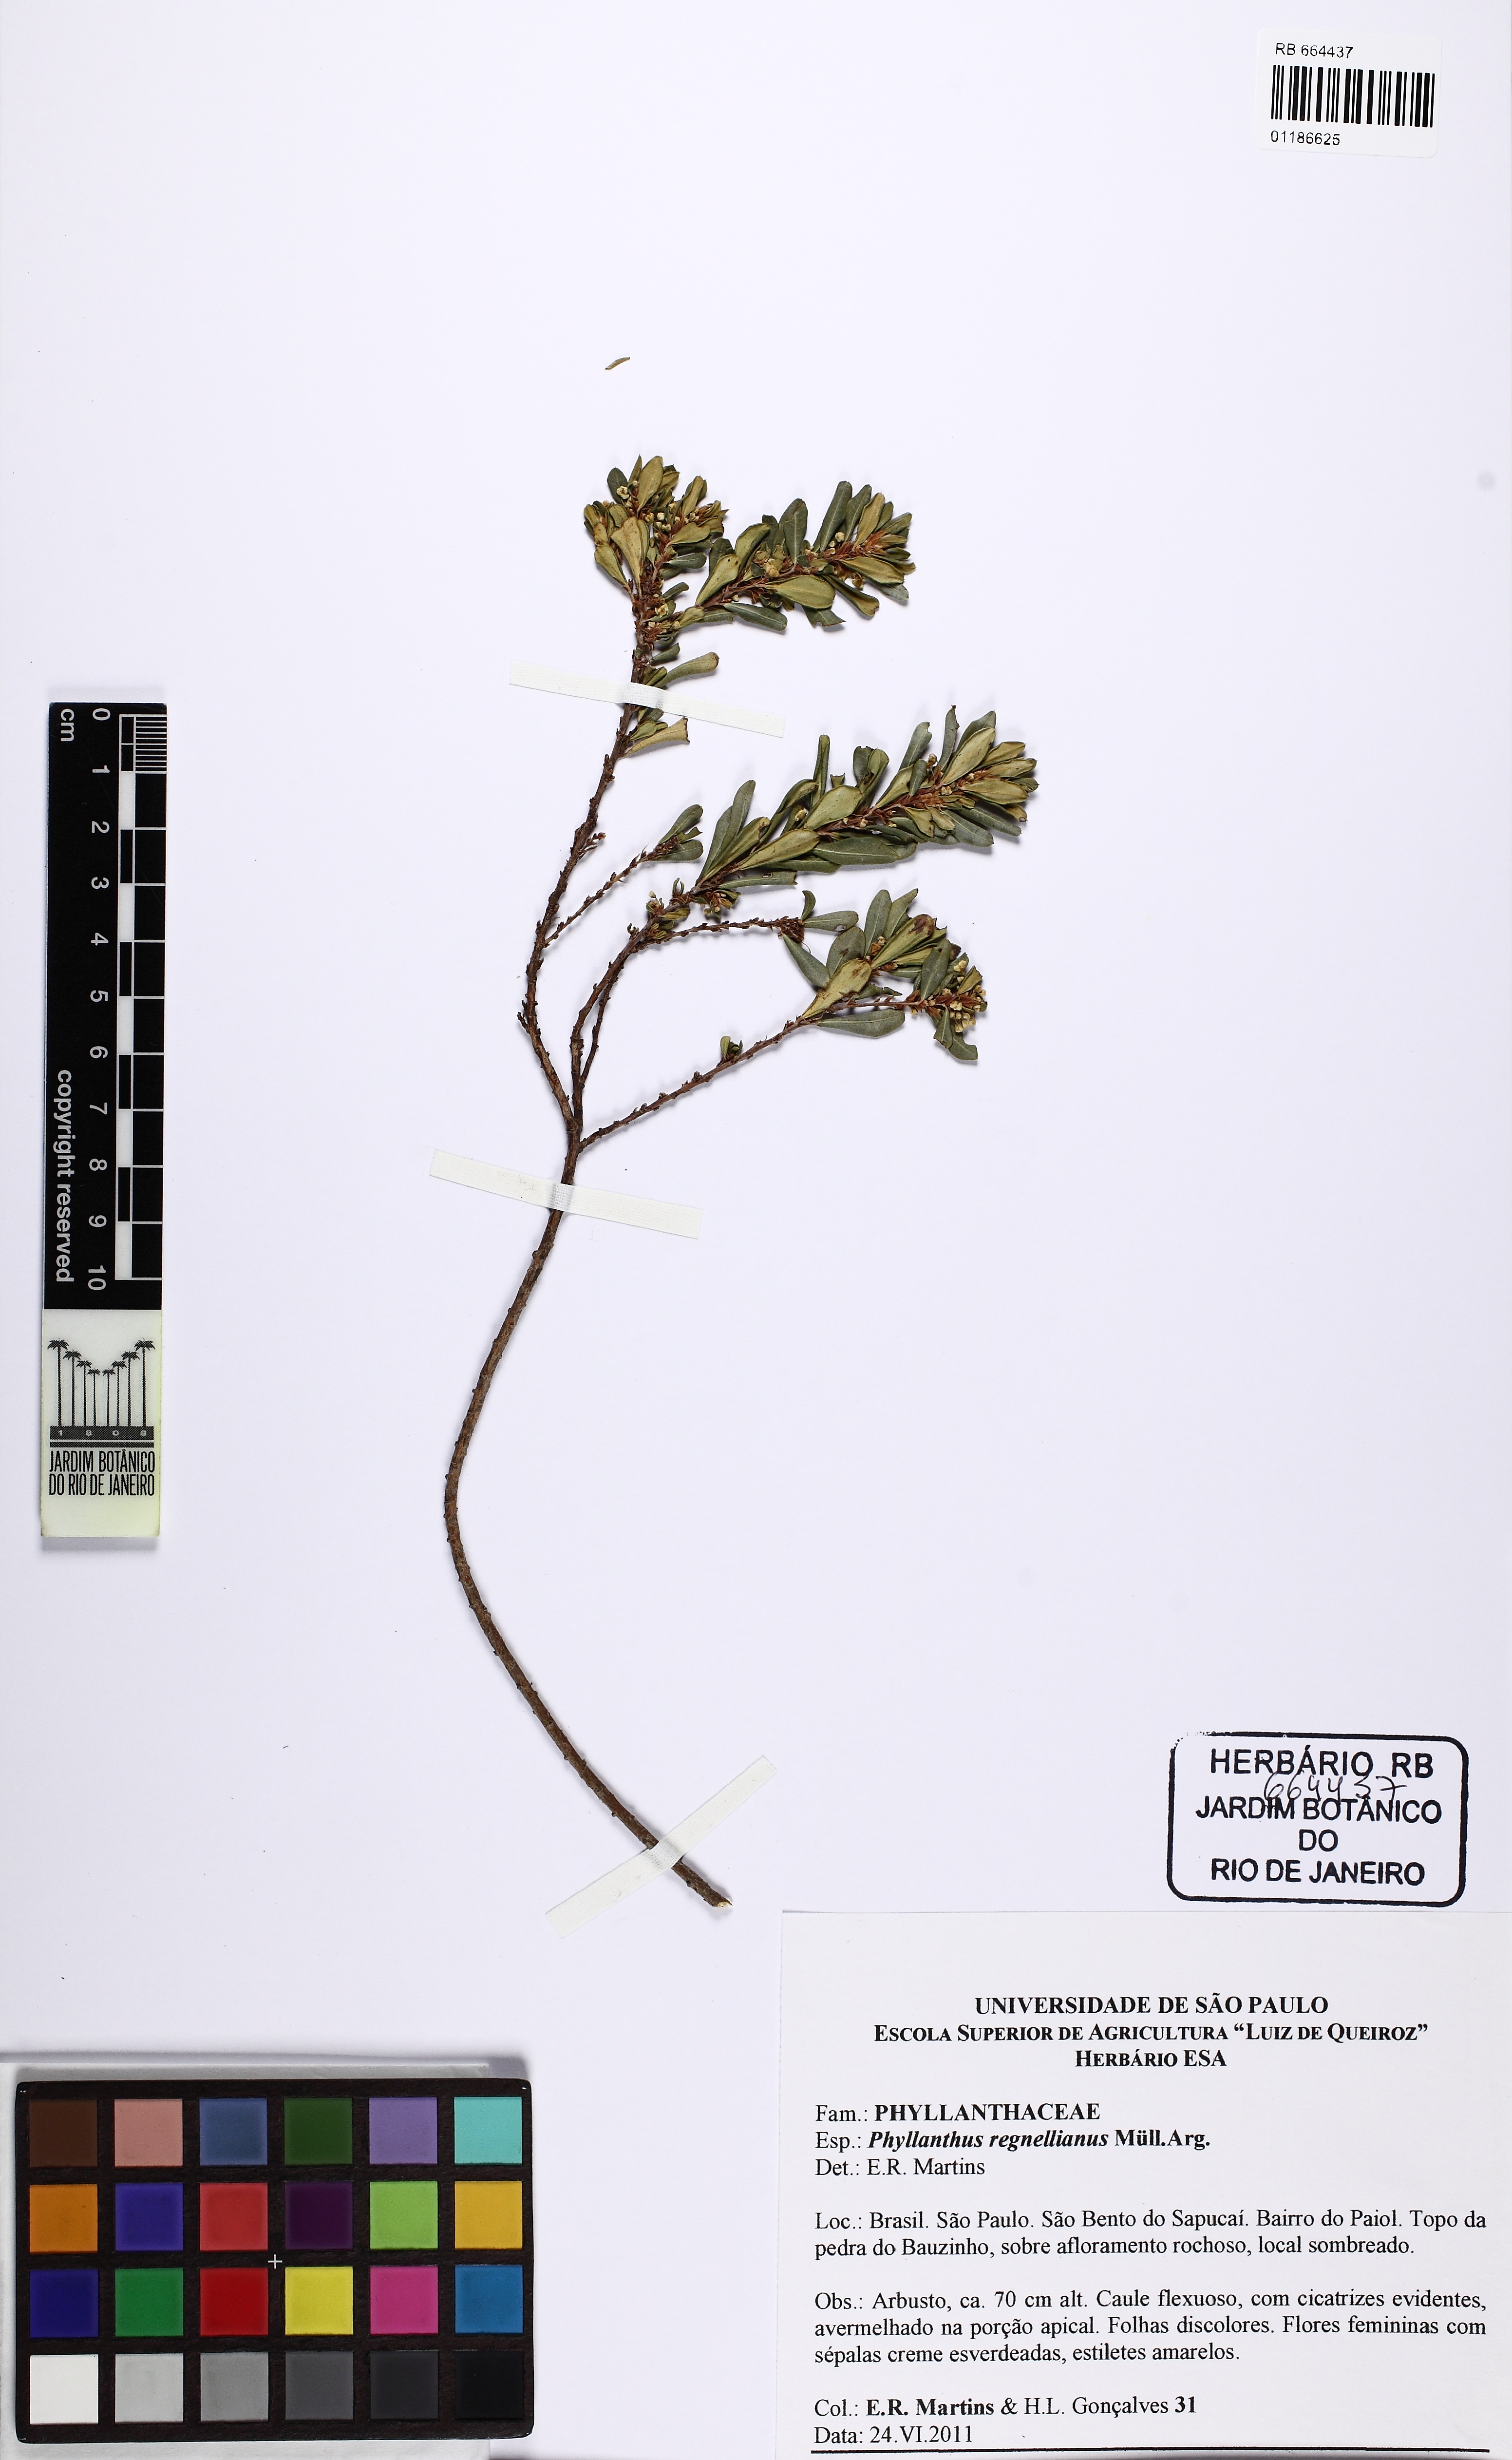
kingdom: Plantae
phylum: Tracheophyta
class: Magnoliopsida
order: Malpighiales
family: Phyllanthaceae
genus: Phyllanthus
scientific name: Phyllanthus dictyospermus
